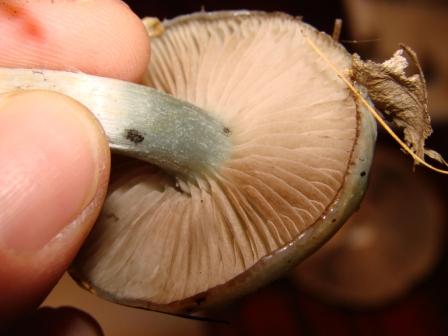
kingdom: Fungi
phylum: Basidiomycota
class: Agaricomycetes
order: Agaricales
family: Strophariaceae
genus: Stropharia
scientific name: Stropharia cyanea
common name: blågrøn bredblad
